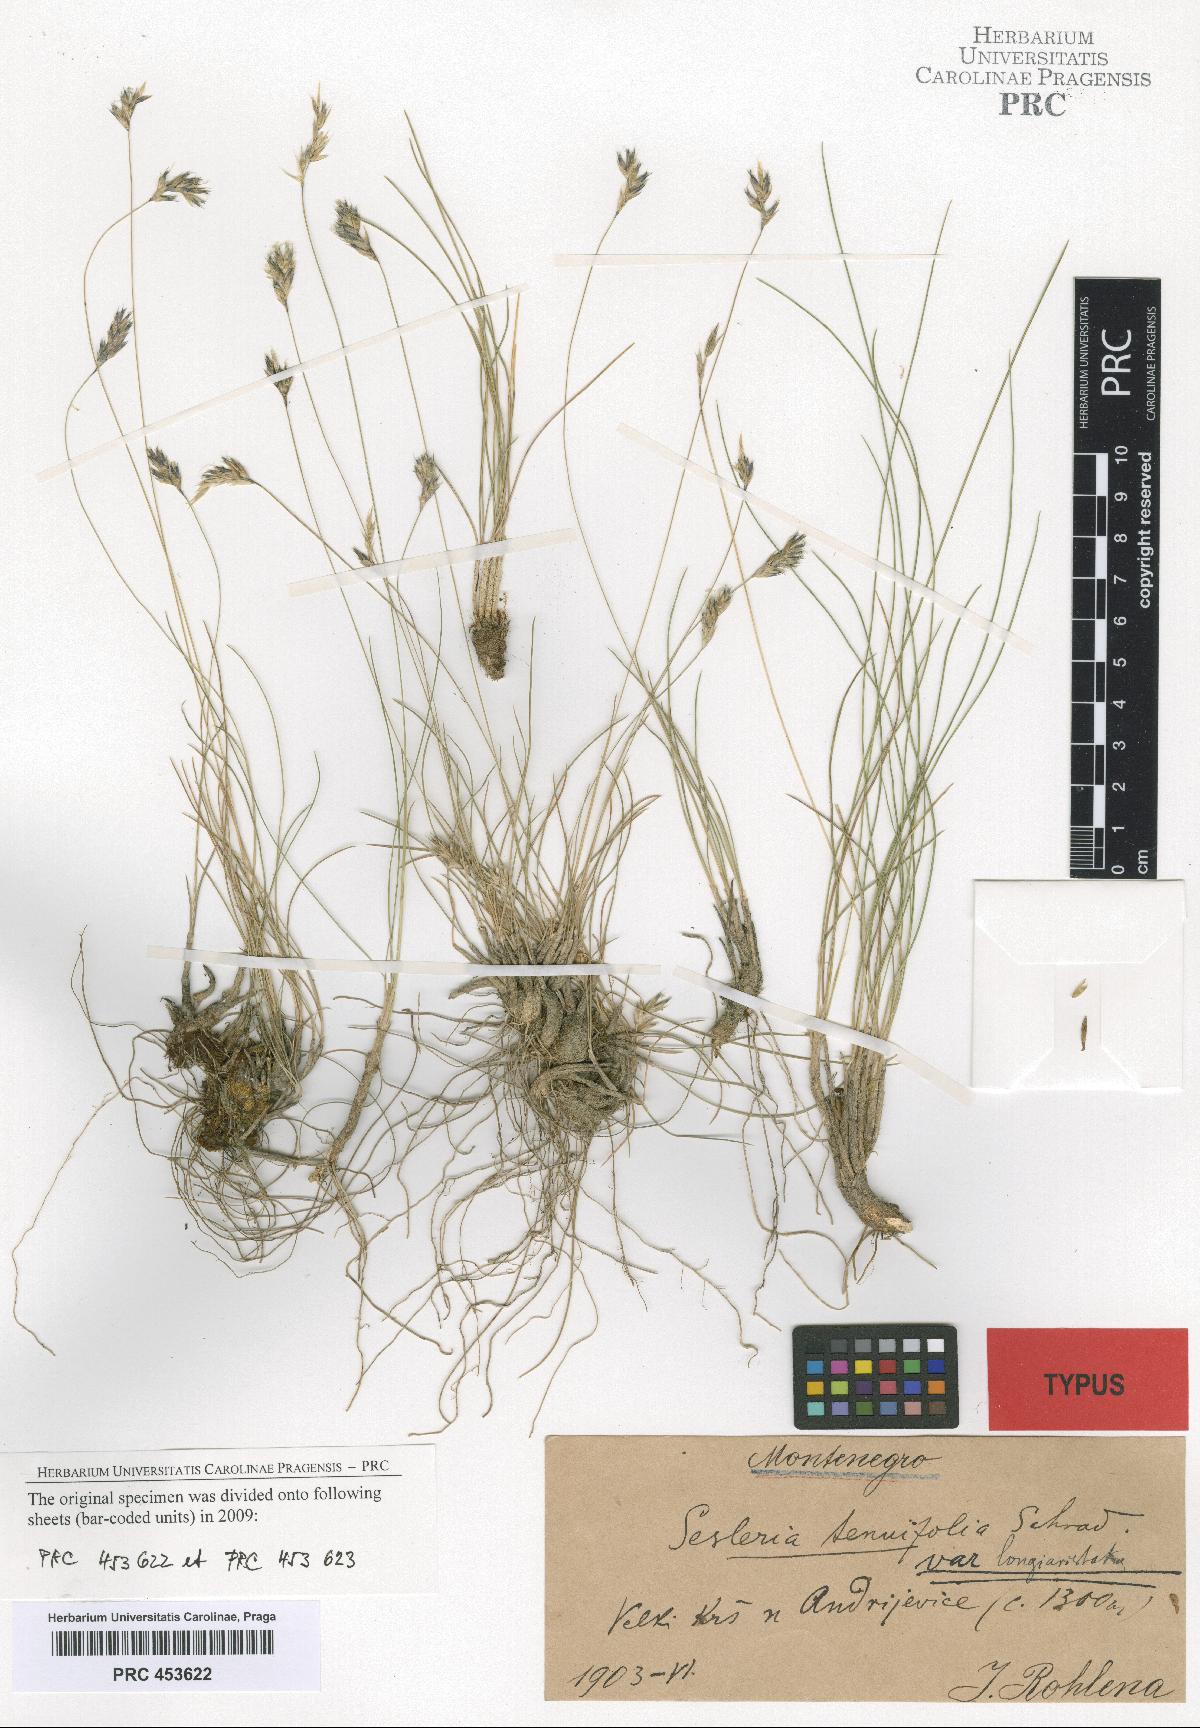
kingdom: Plantae
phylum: Tracheophyta
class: Liliopsida
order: Poales
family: Poaceae
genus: Sesleria
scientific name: Sesleria
